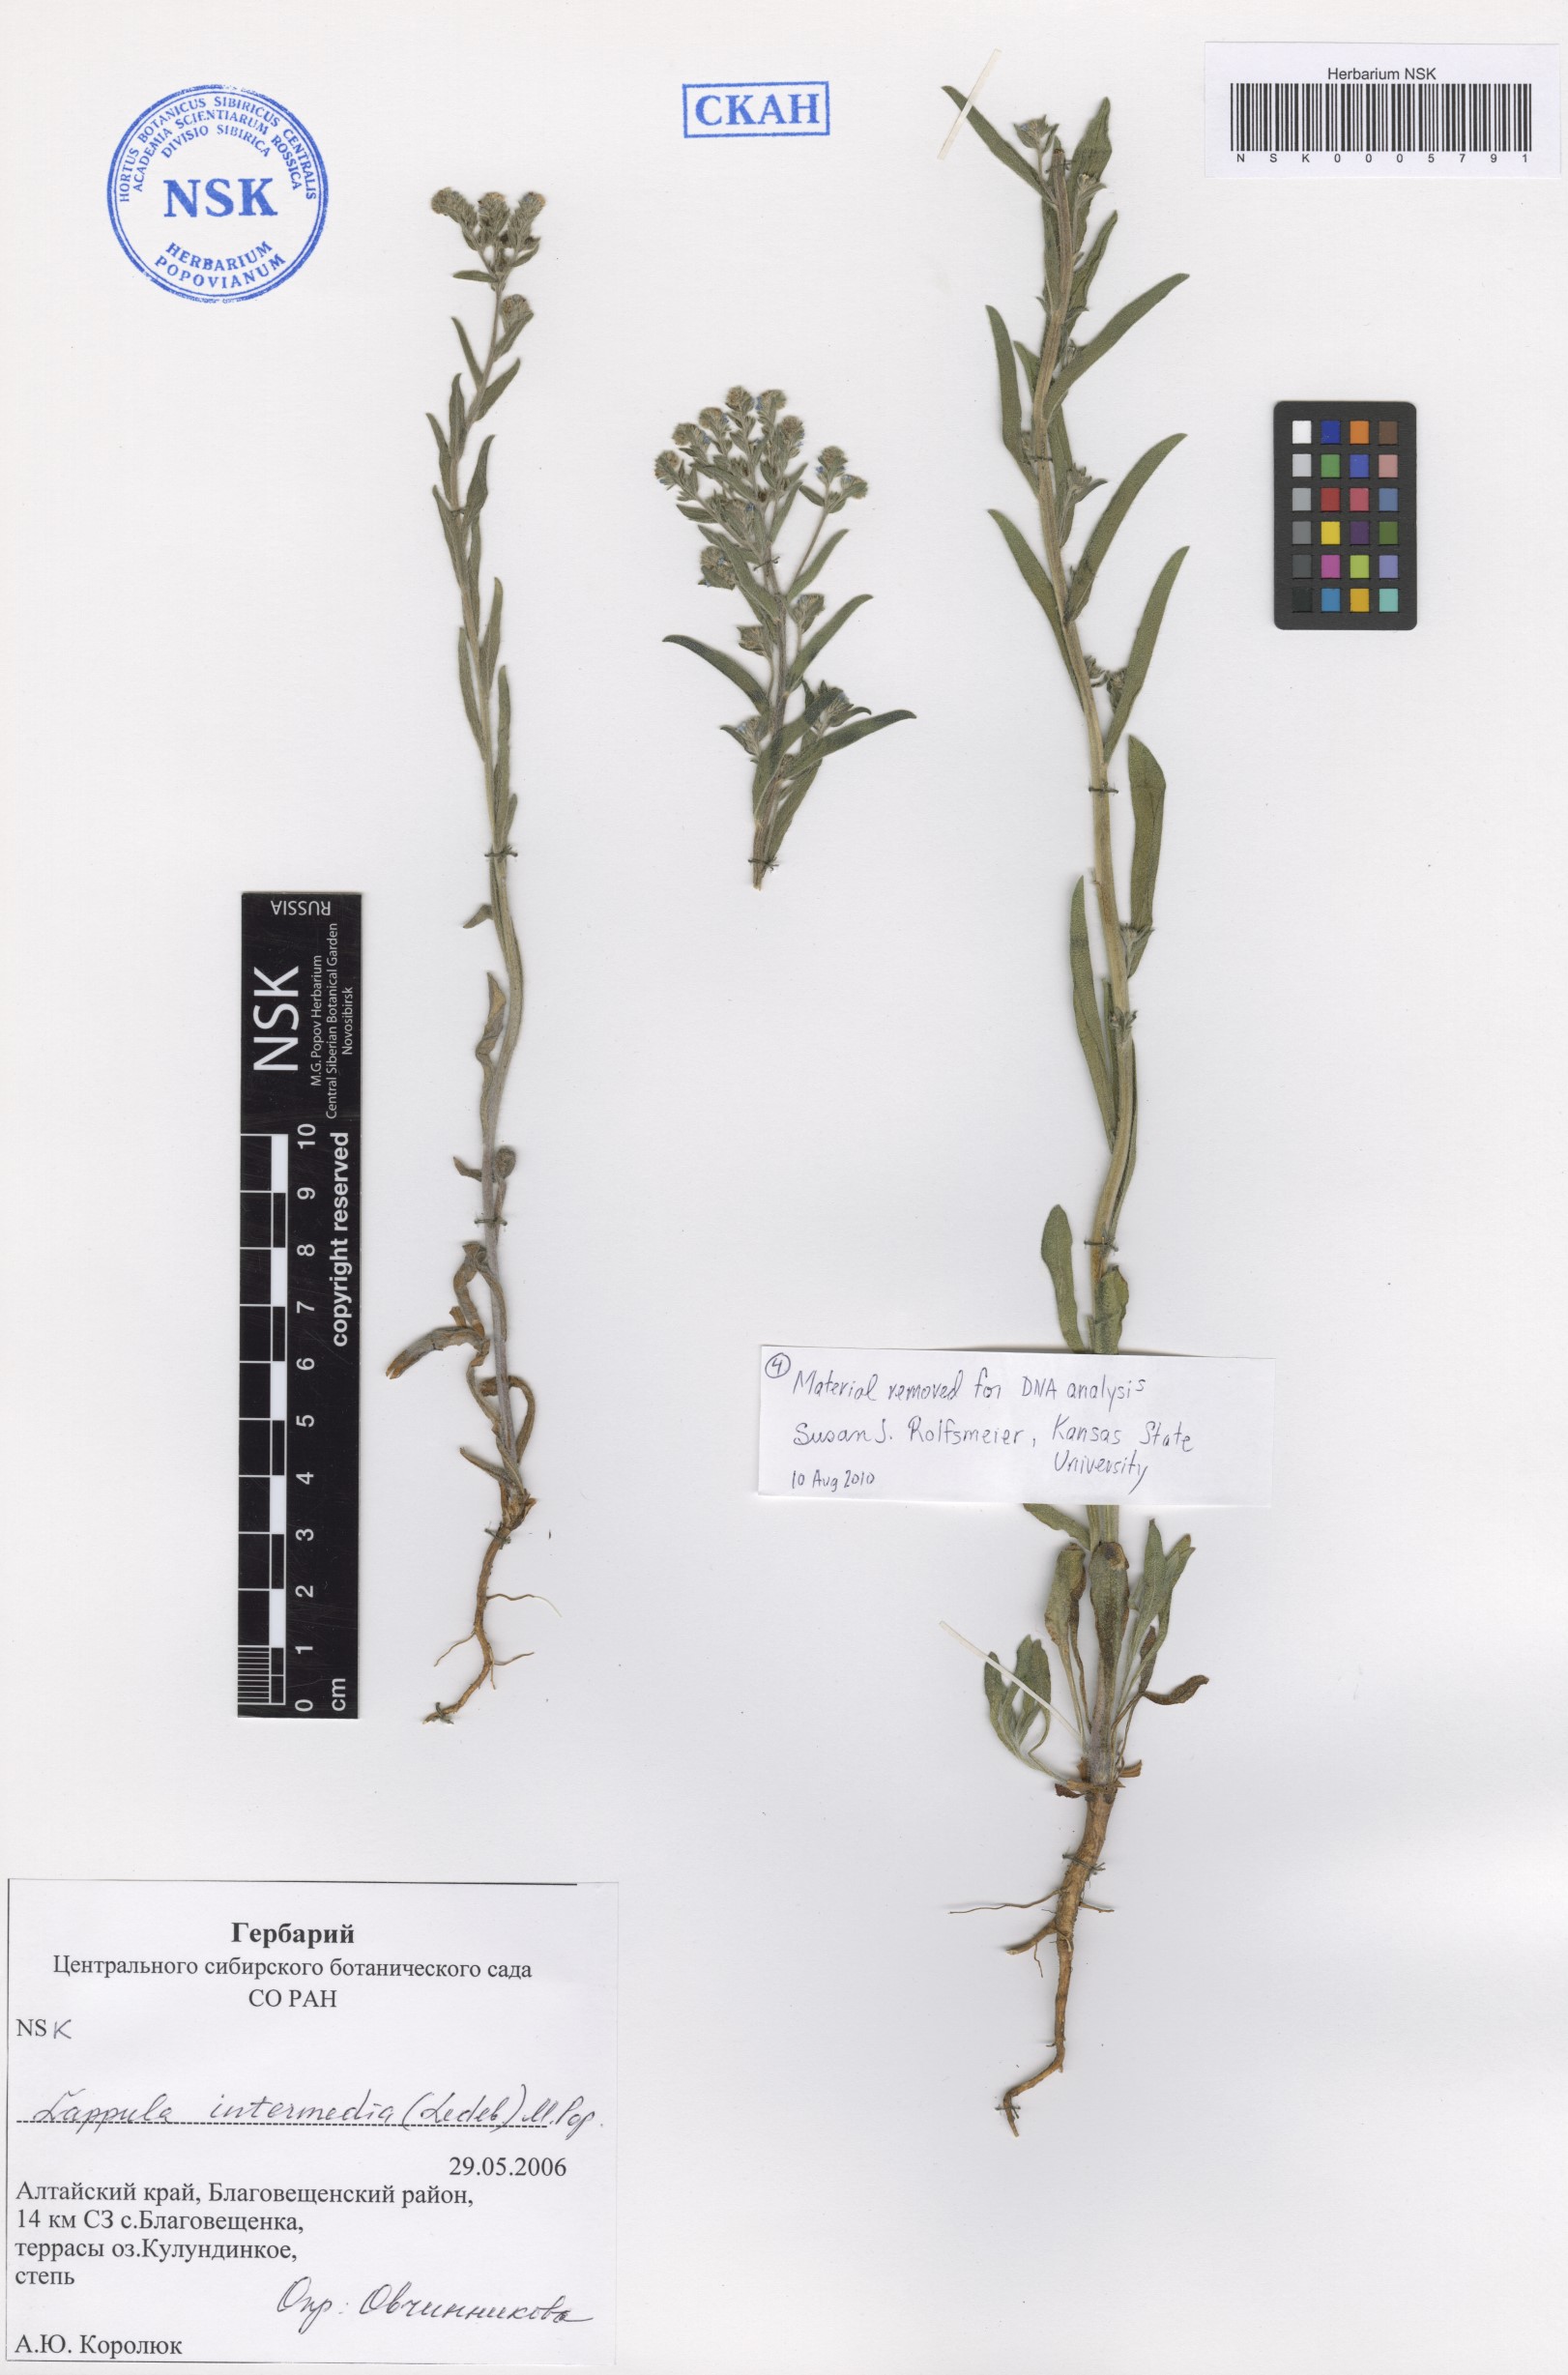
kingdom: Plantae
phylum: Tracheophyta
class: Magnoliopsida
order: Boraginales
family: Boraginaceae
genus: Lappula
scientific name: Lappula intermedia
